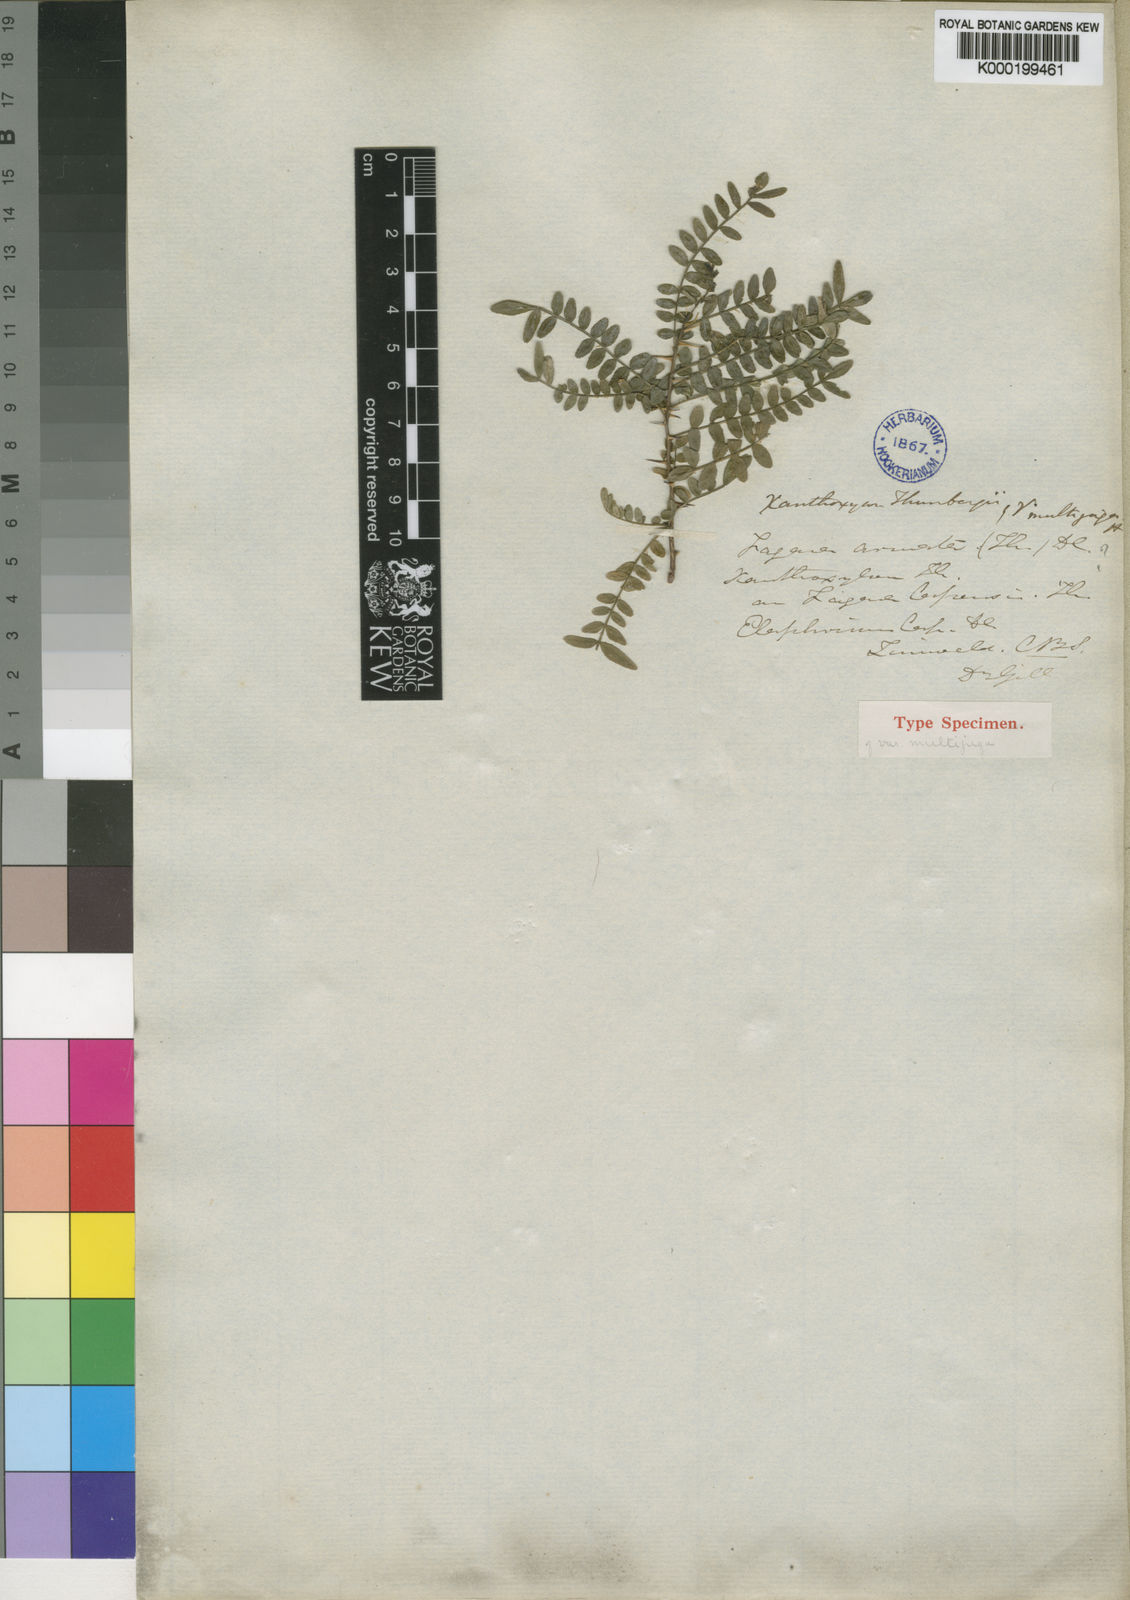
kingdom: Plantae
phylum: Tracheophyta
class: Magnoliopsida
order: Sapindales
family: Rutaceae
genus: Zanthoxylum
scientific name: Zanthoxylum capense
